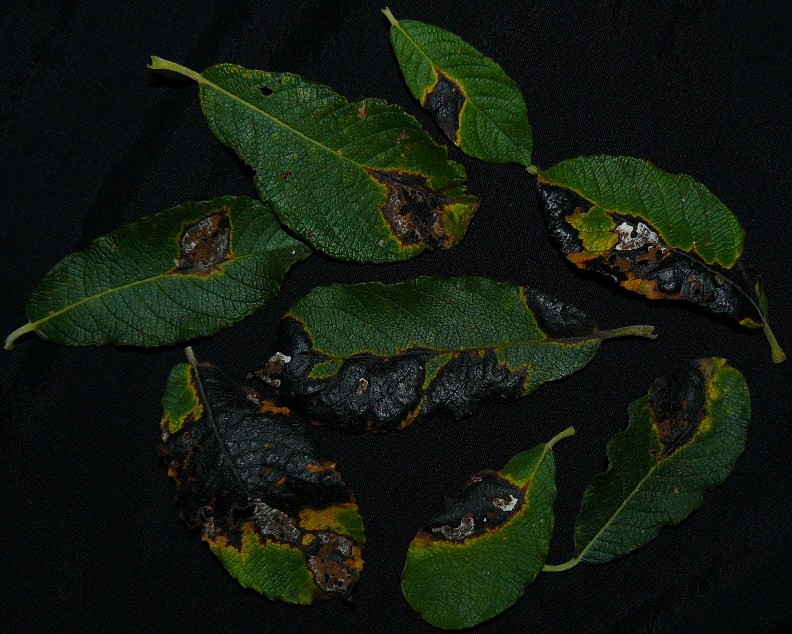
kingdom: Fungi
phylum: Ascomycota
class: Leotiomycetes
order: Rhytismatales
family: Rhytismataceae
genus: Rhytisma
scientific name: Rhytisma salicinum
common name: pile-rynkeplet
